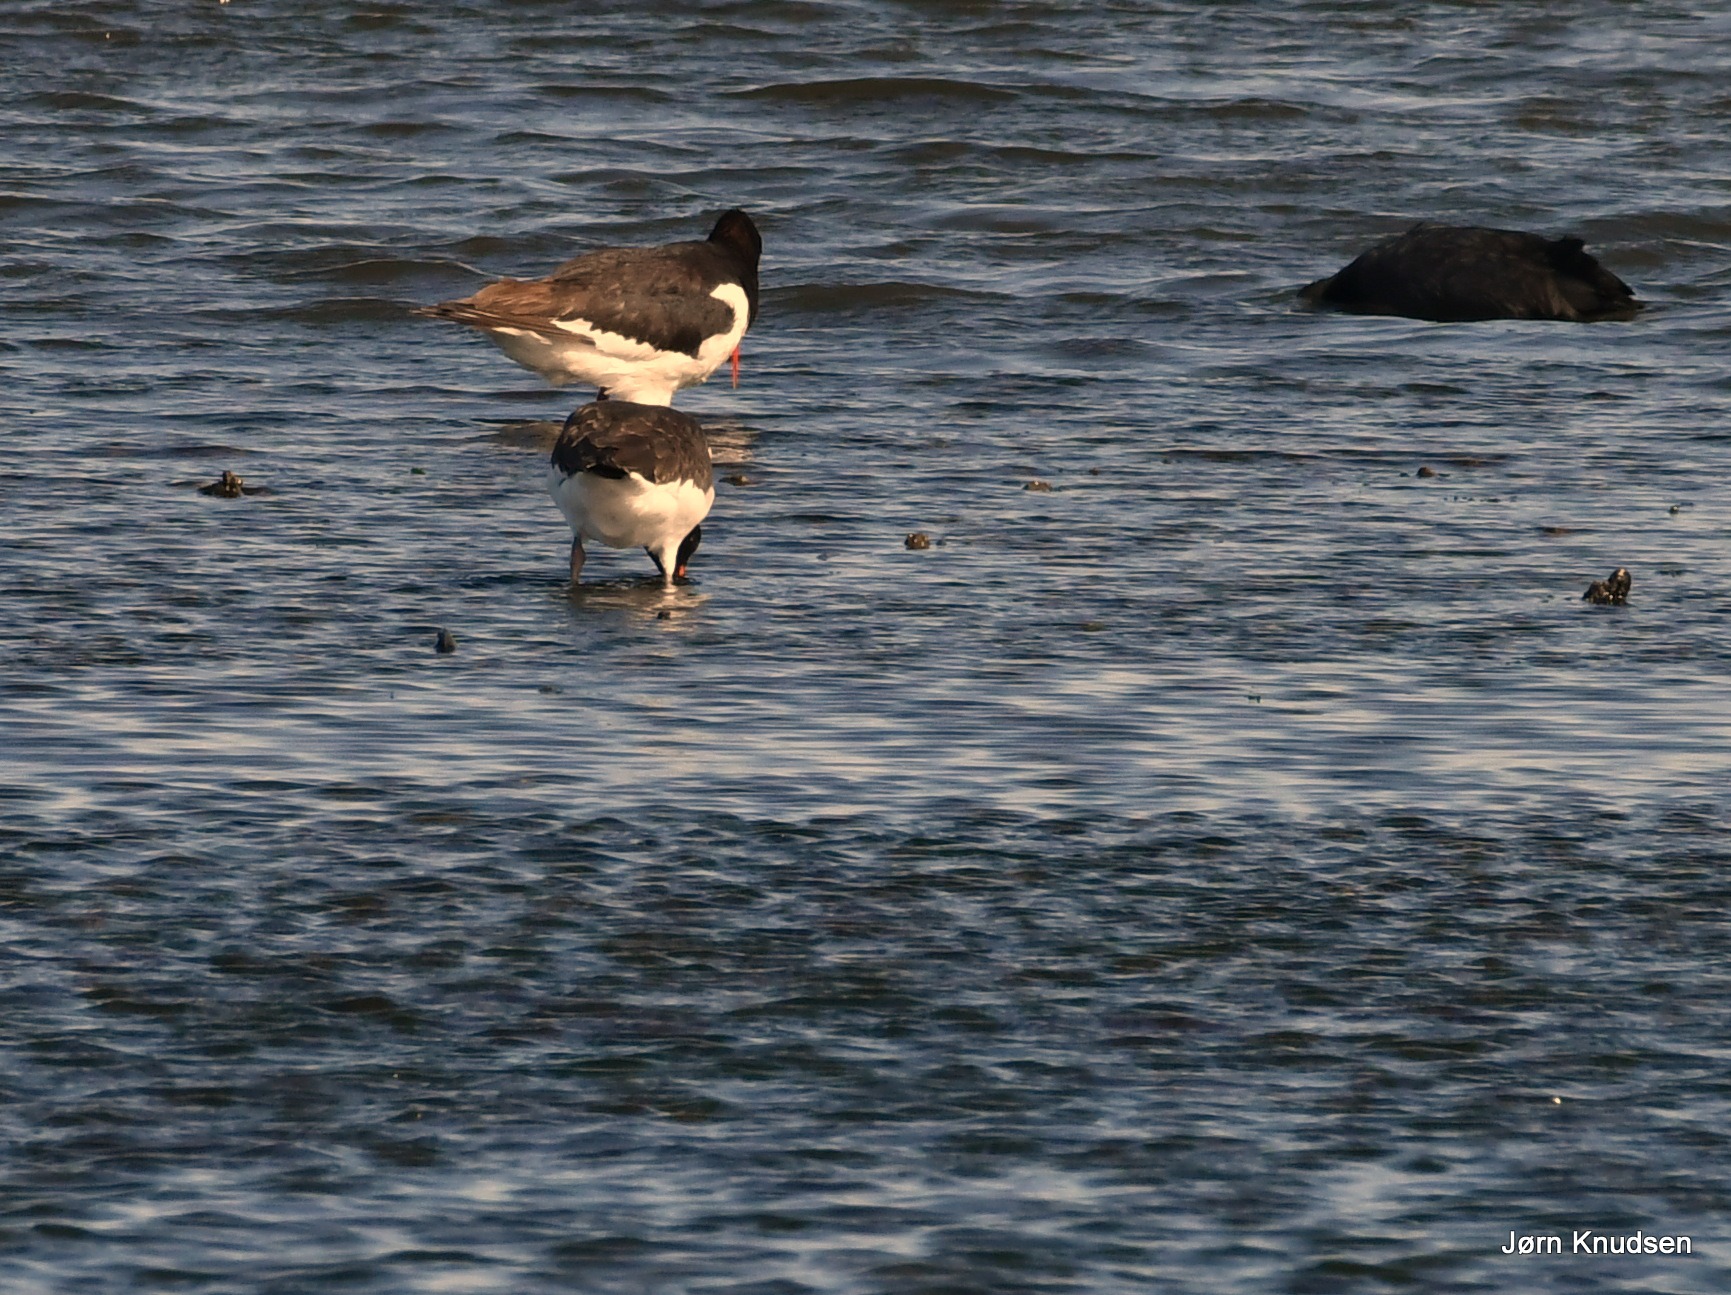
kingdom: Animalia
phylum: Chordata
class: Aves
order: Charadriiformes
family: Haematopodidae
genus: Haematopus
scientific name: Haematopus ostralegus
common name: Strandskade
